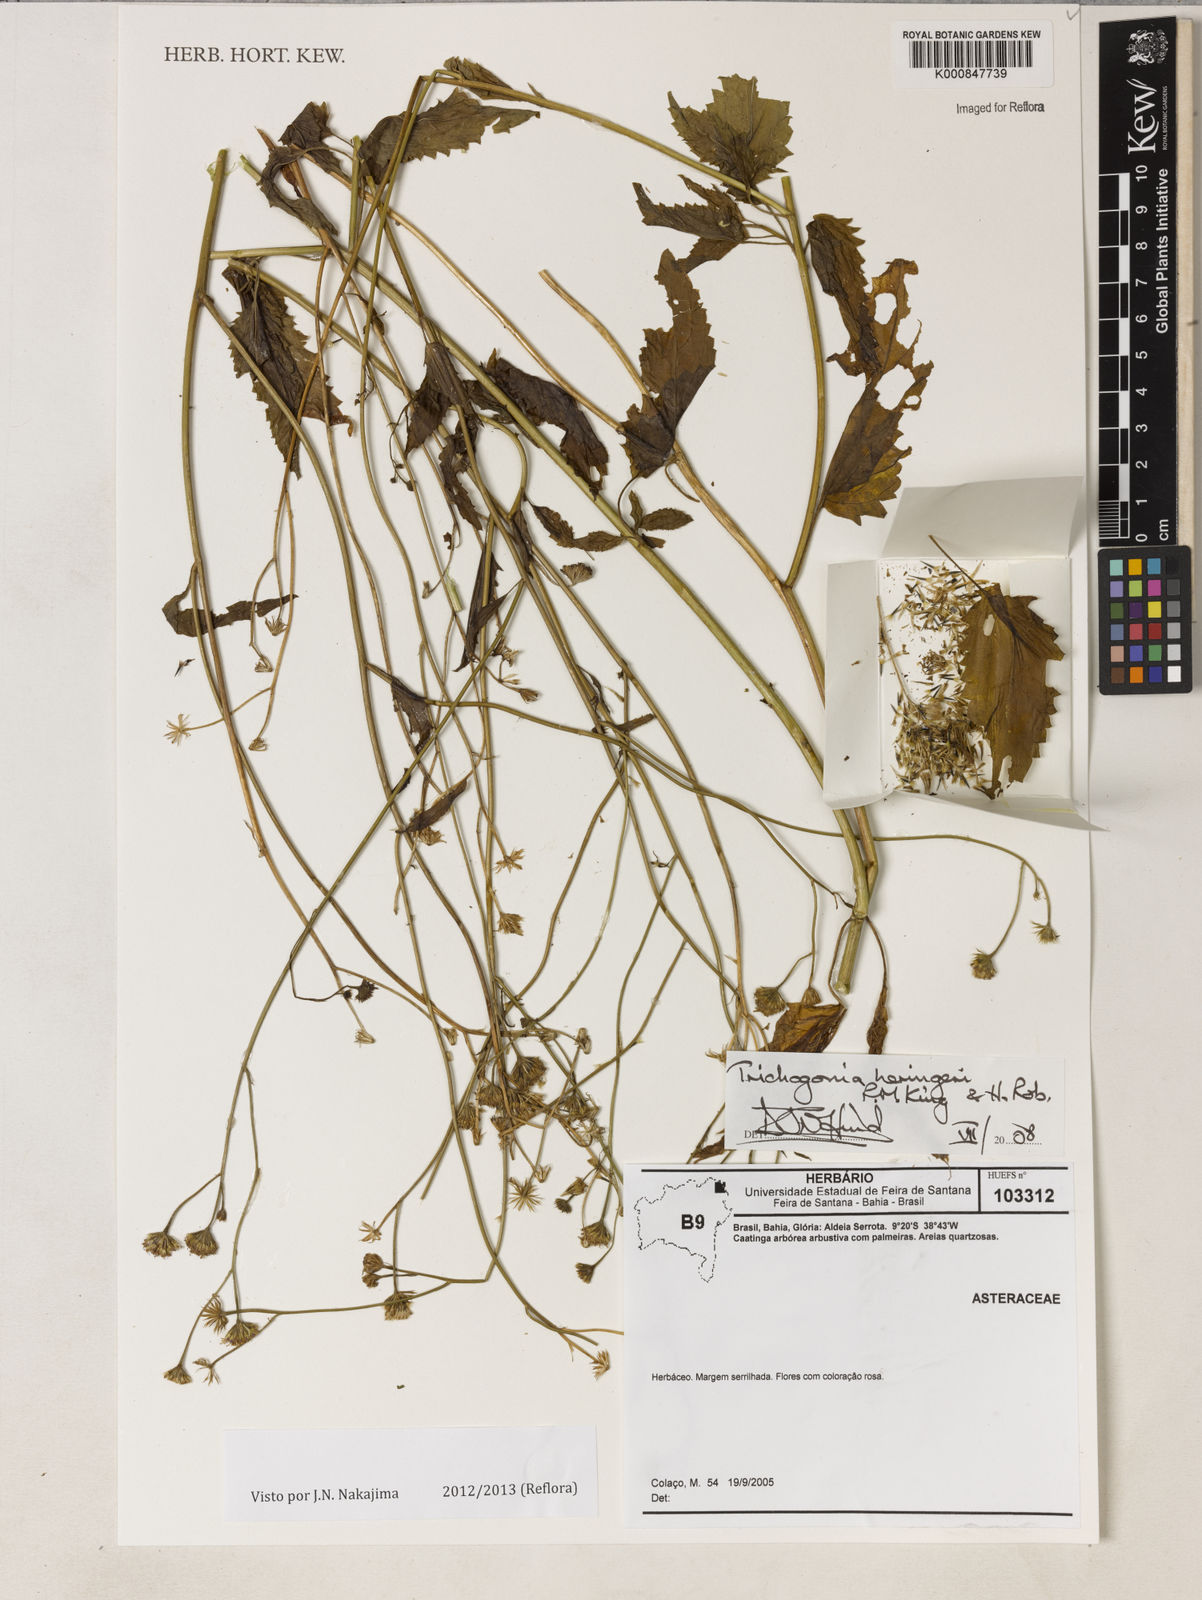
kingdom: Plantae
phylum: Tracheophyta
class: Magnoliopsida
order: Asterales
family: Asteraceae
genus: Trichogonia
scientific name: Trichogonia heringeri
